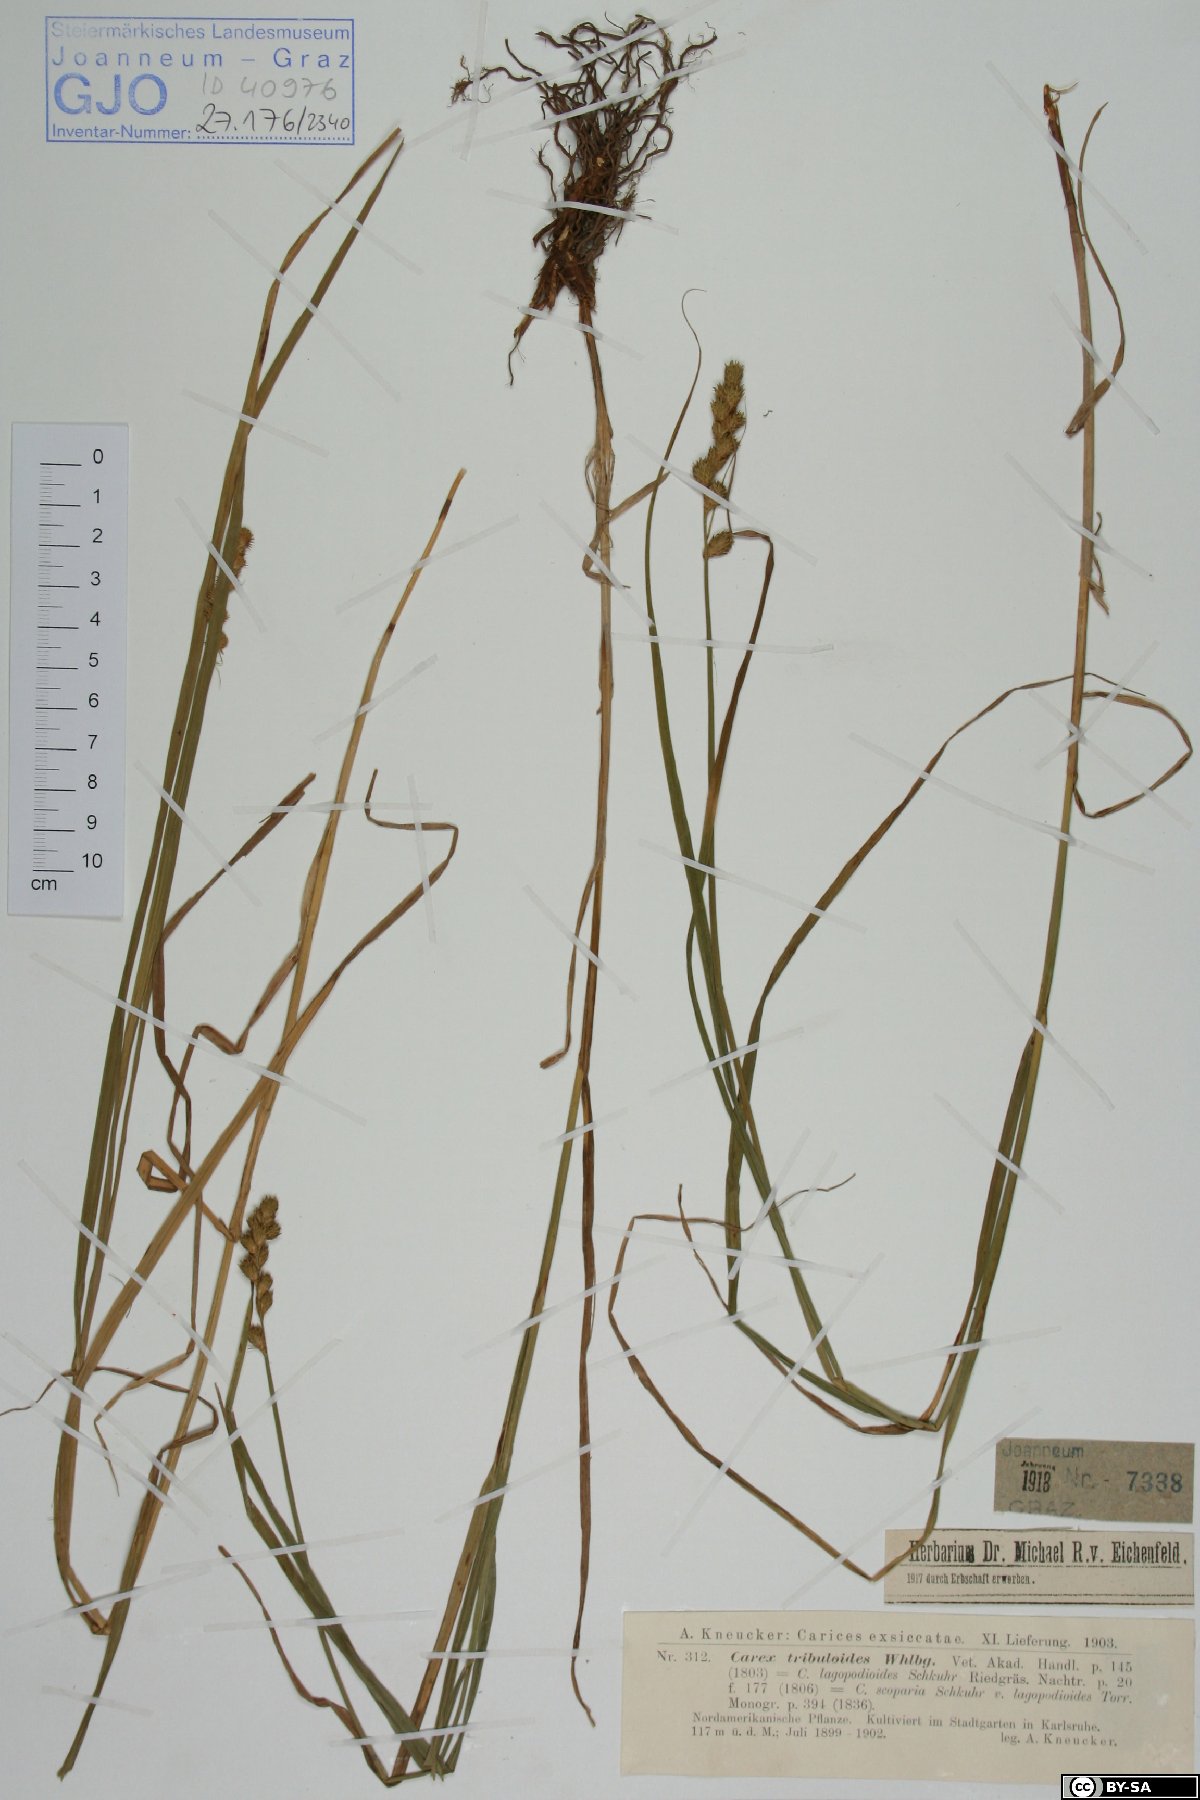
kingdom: Plantae
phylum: Tracheophyta
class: Liliopsida
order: Poales
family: Cyperaceae
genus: Carex
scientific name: Carex tribuloides
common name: Blunt broom sedge
